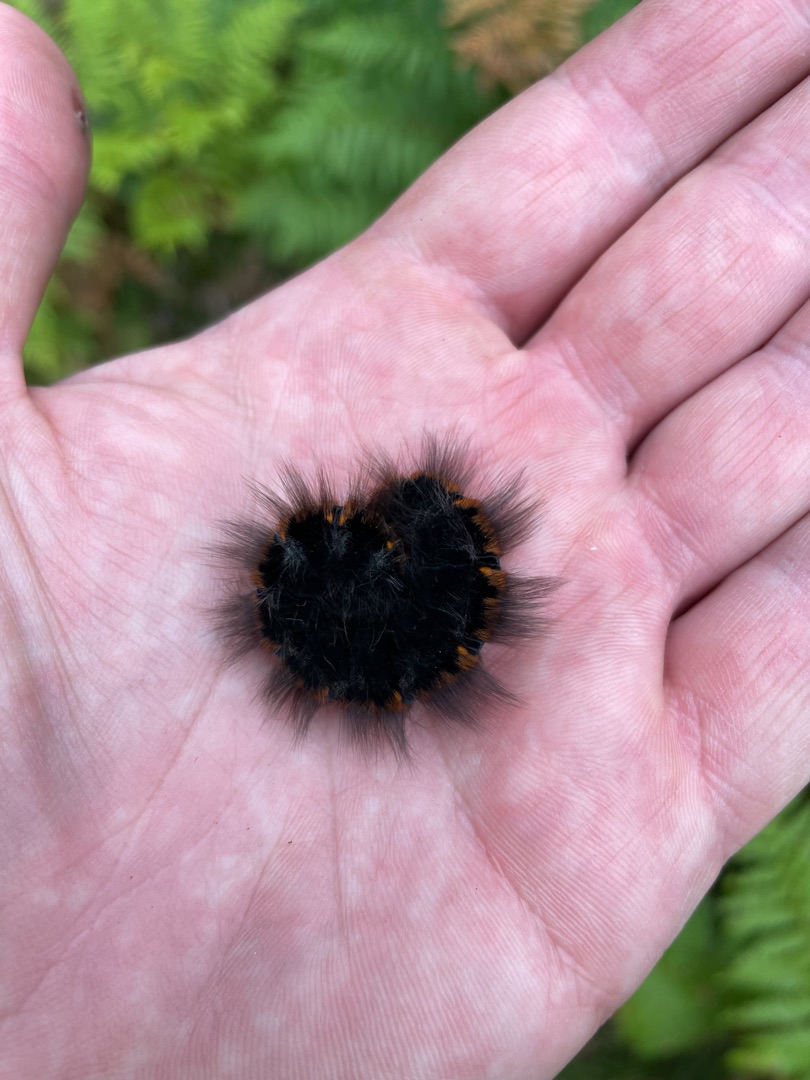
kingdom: Animalia
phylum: Arthropoda
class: Insecta
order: Lepidoptera
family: Lasiocampidae
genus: Macrothylacia
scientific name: Macrothylacia rubi
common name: Brombærspinder
